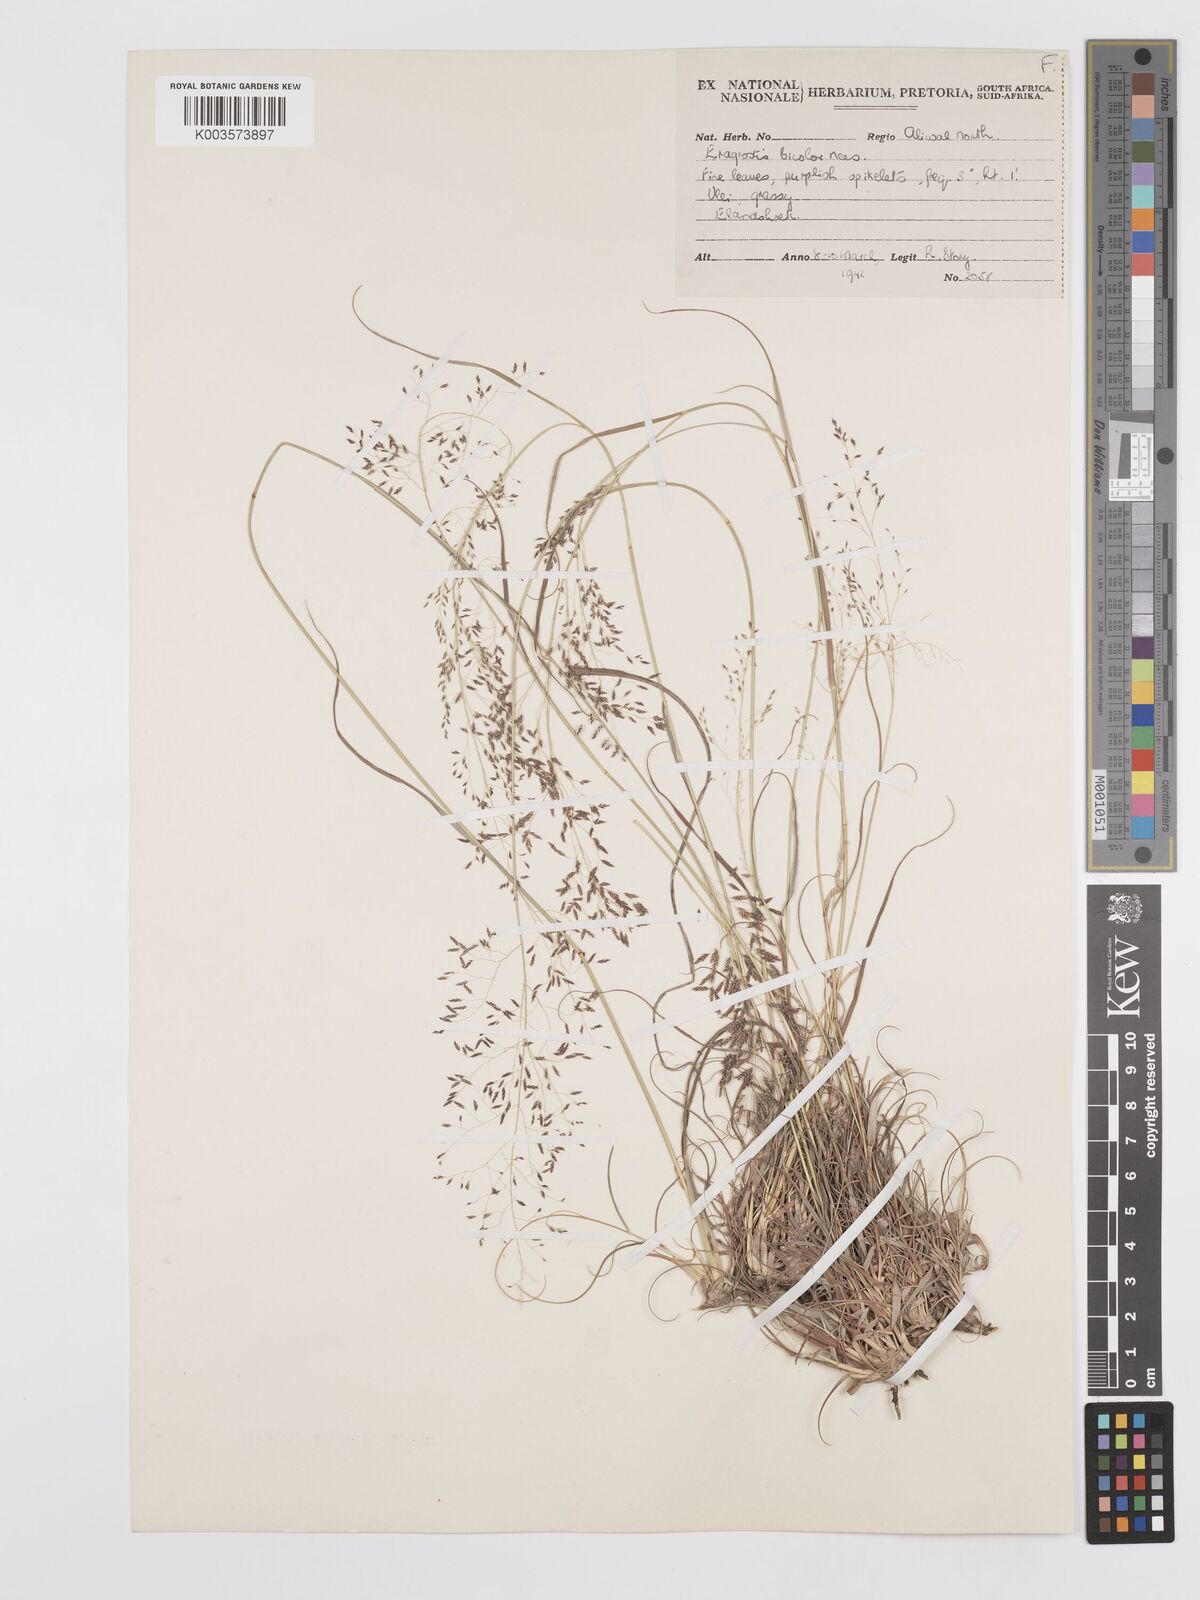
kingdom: Plantae
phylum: Tracheophyta
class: Liliopsida
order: Poales
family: Poaceae
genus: Eragrostis
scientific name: Eragrostis
